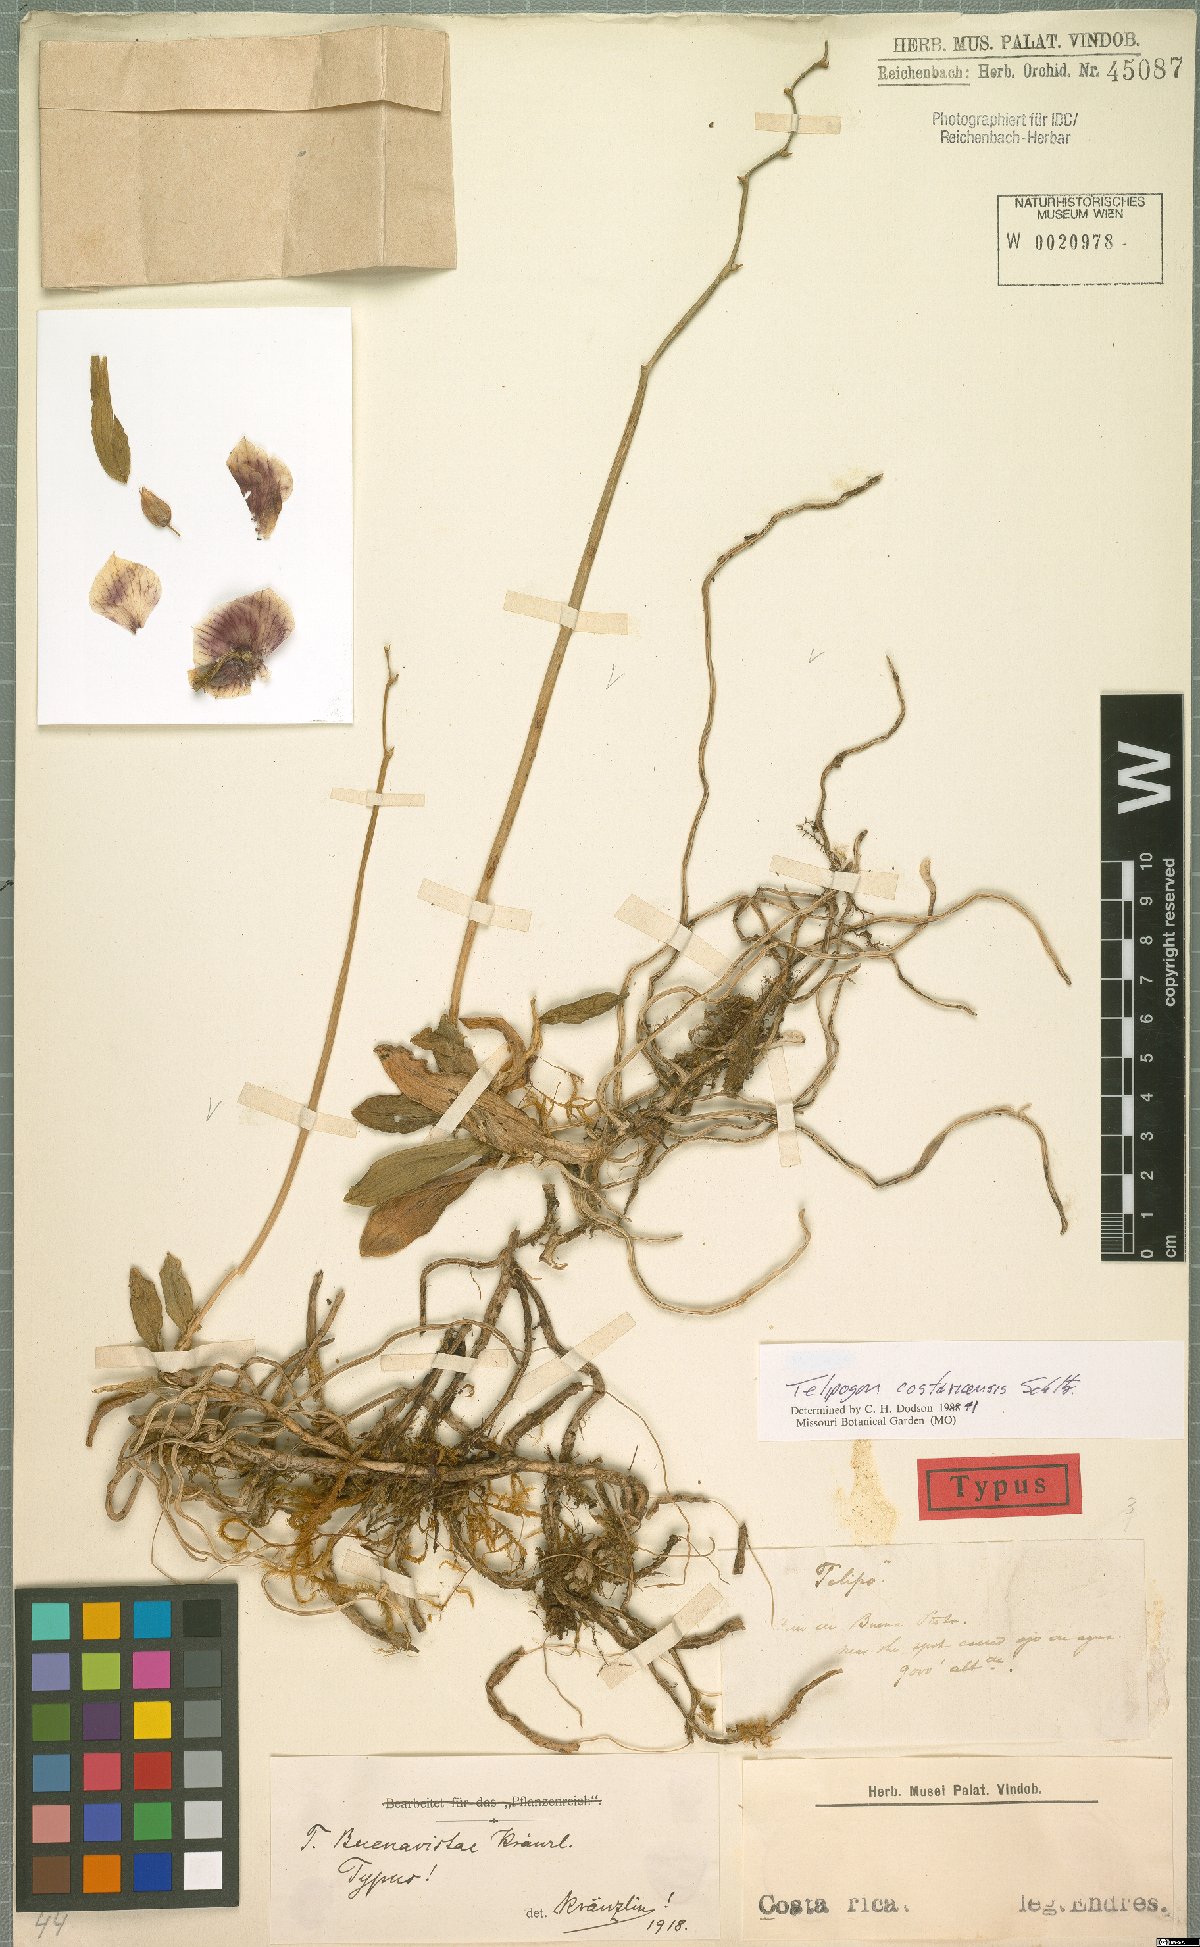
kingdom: Plantae
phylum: Tracheophyta
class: Liliopsida
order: Asparagales
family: Orchidaceae
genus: Telipogon
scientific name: Telipogon costaricensis
